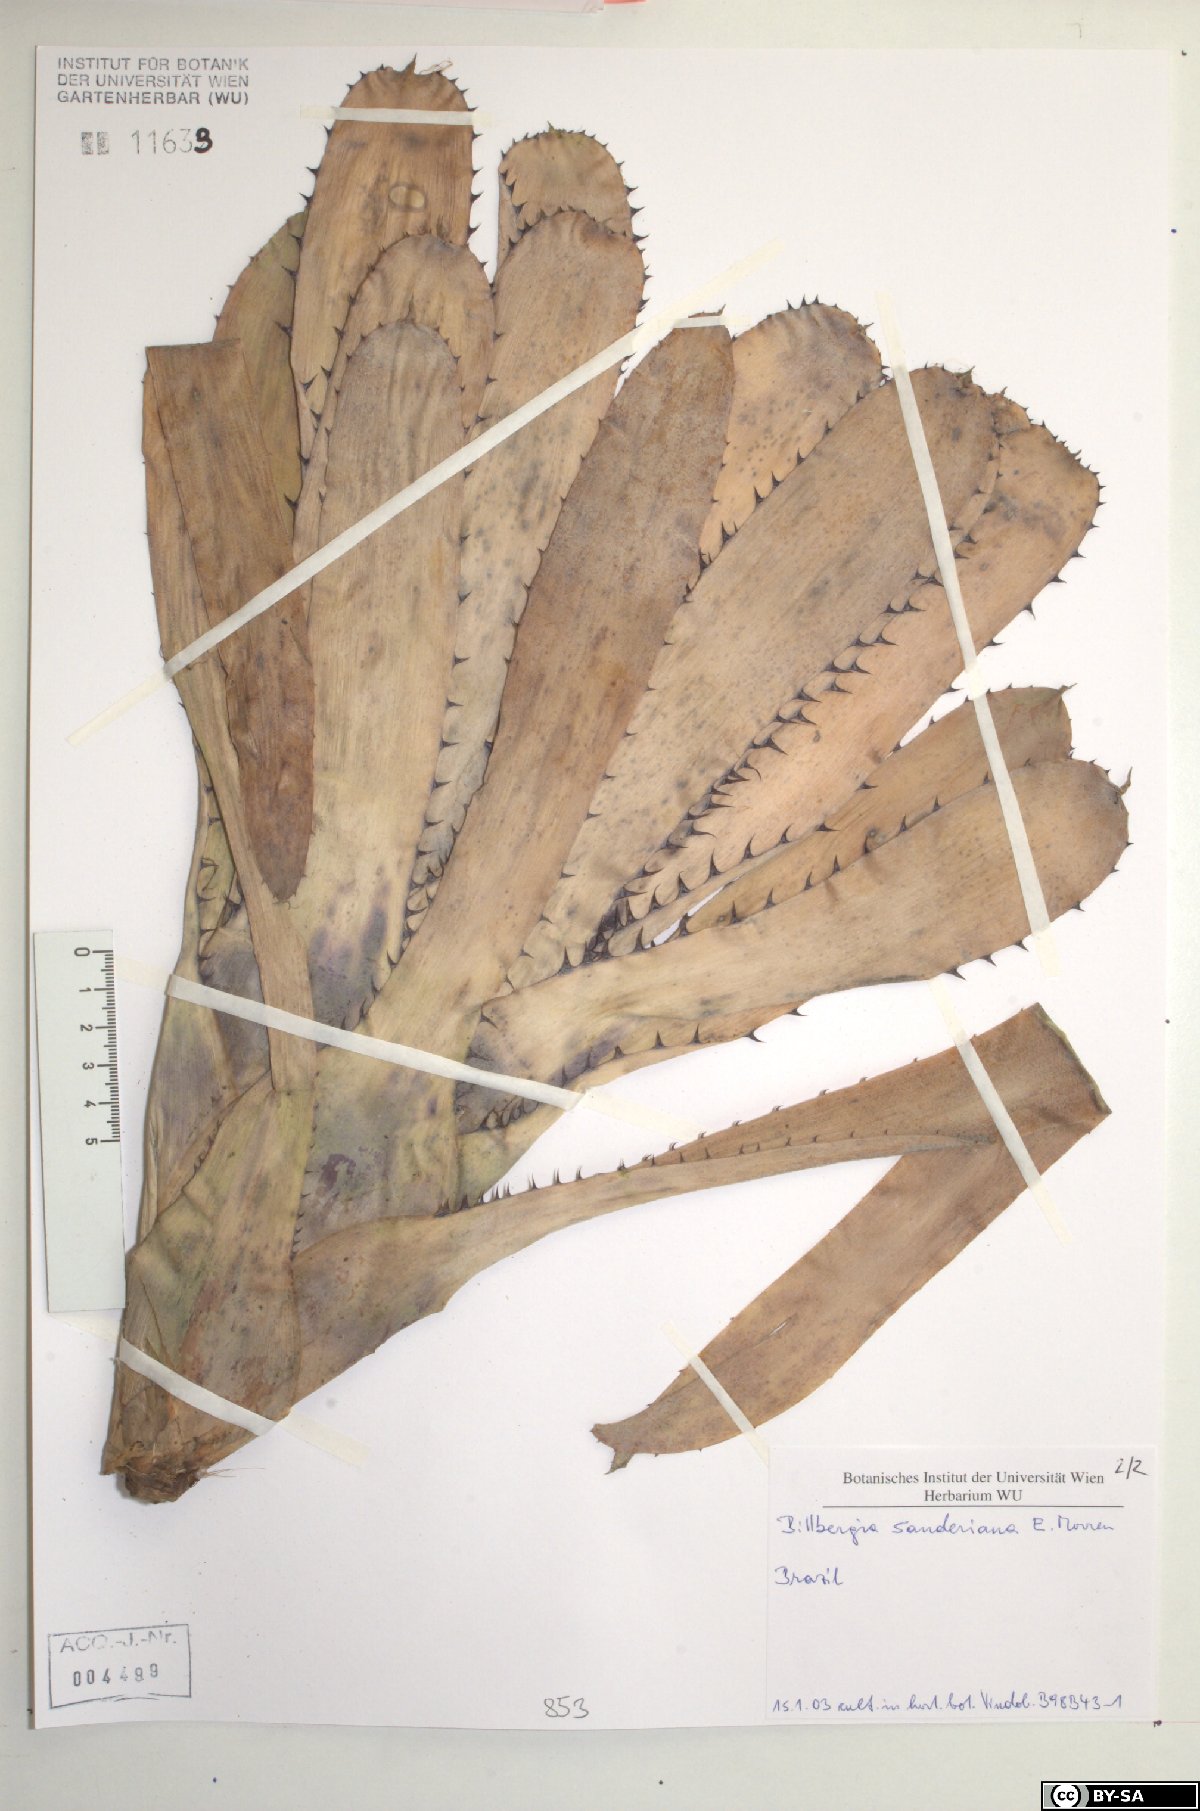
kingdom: Plantae
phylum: Tracheophyta
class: Liliopsida
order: Poales
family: Bromeliaceae
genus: Billbergia
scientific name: Billbergia sanderiana
